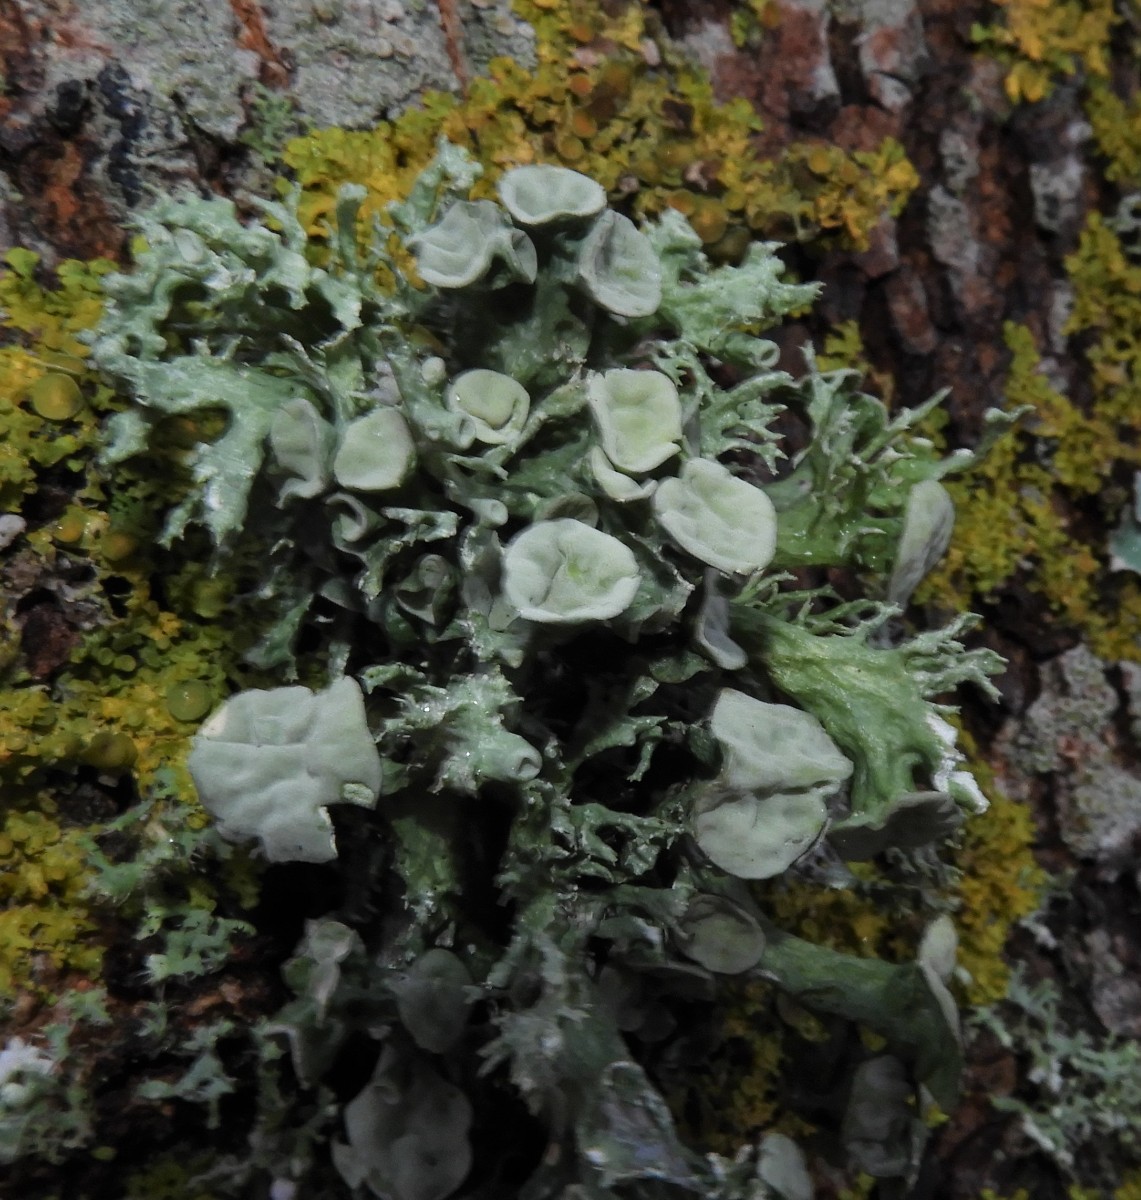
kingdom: Fungi
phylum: Ascomycota
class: Lecanoromycetes
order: Lecanorales
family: Ramalinaceae
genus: Ramalina
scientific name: Ramalina fastigiata
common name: tue-grenlav
